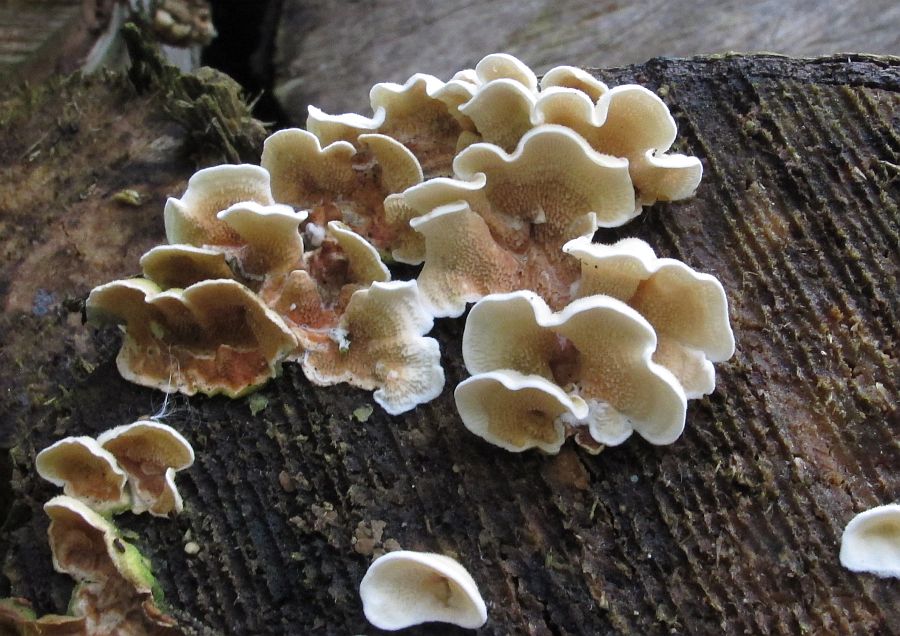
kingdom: Fungi
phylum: Basidiomycota
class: Agaricomycetes
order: Polyporales
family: Irpicaceae
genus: Byssomerulius
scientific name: Byssomerulius corium
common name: læder-åresvamp
